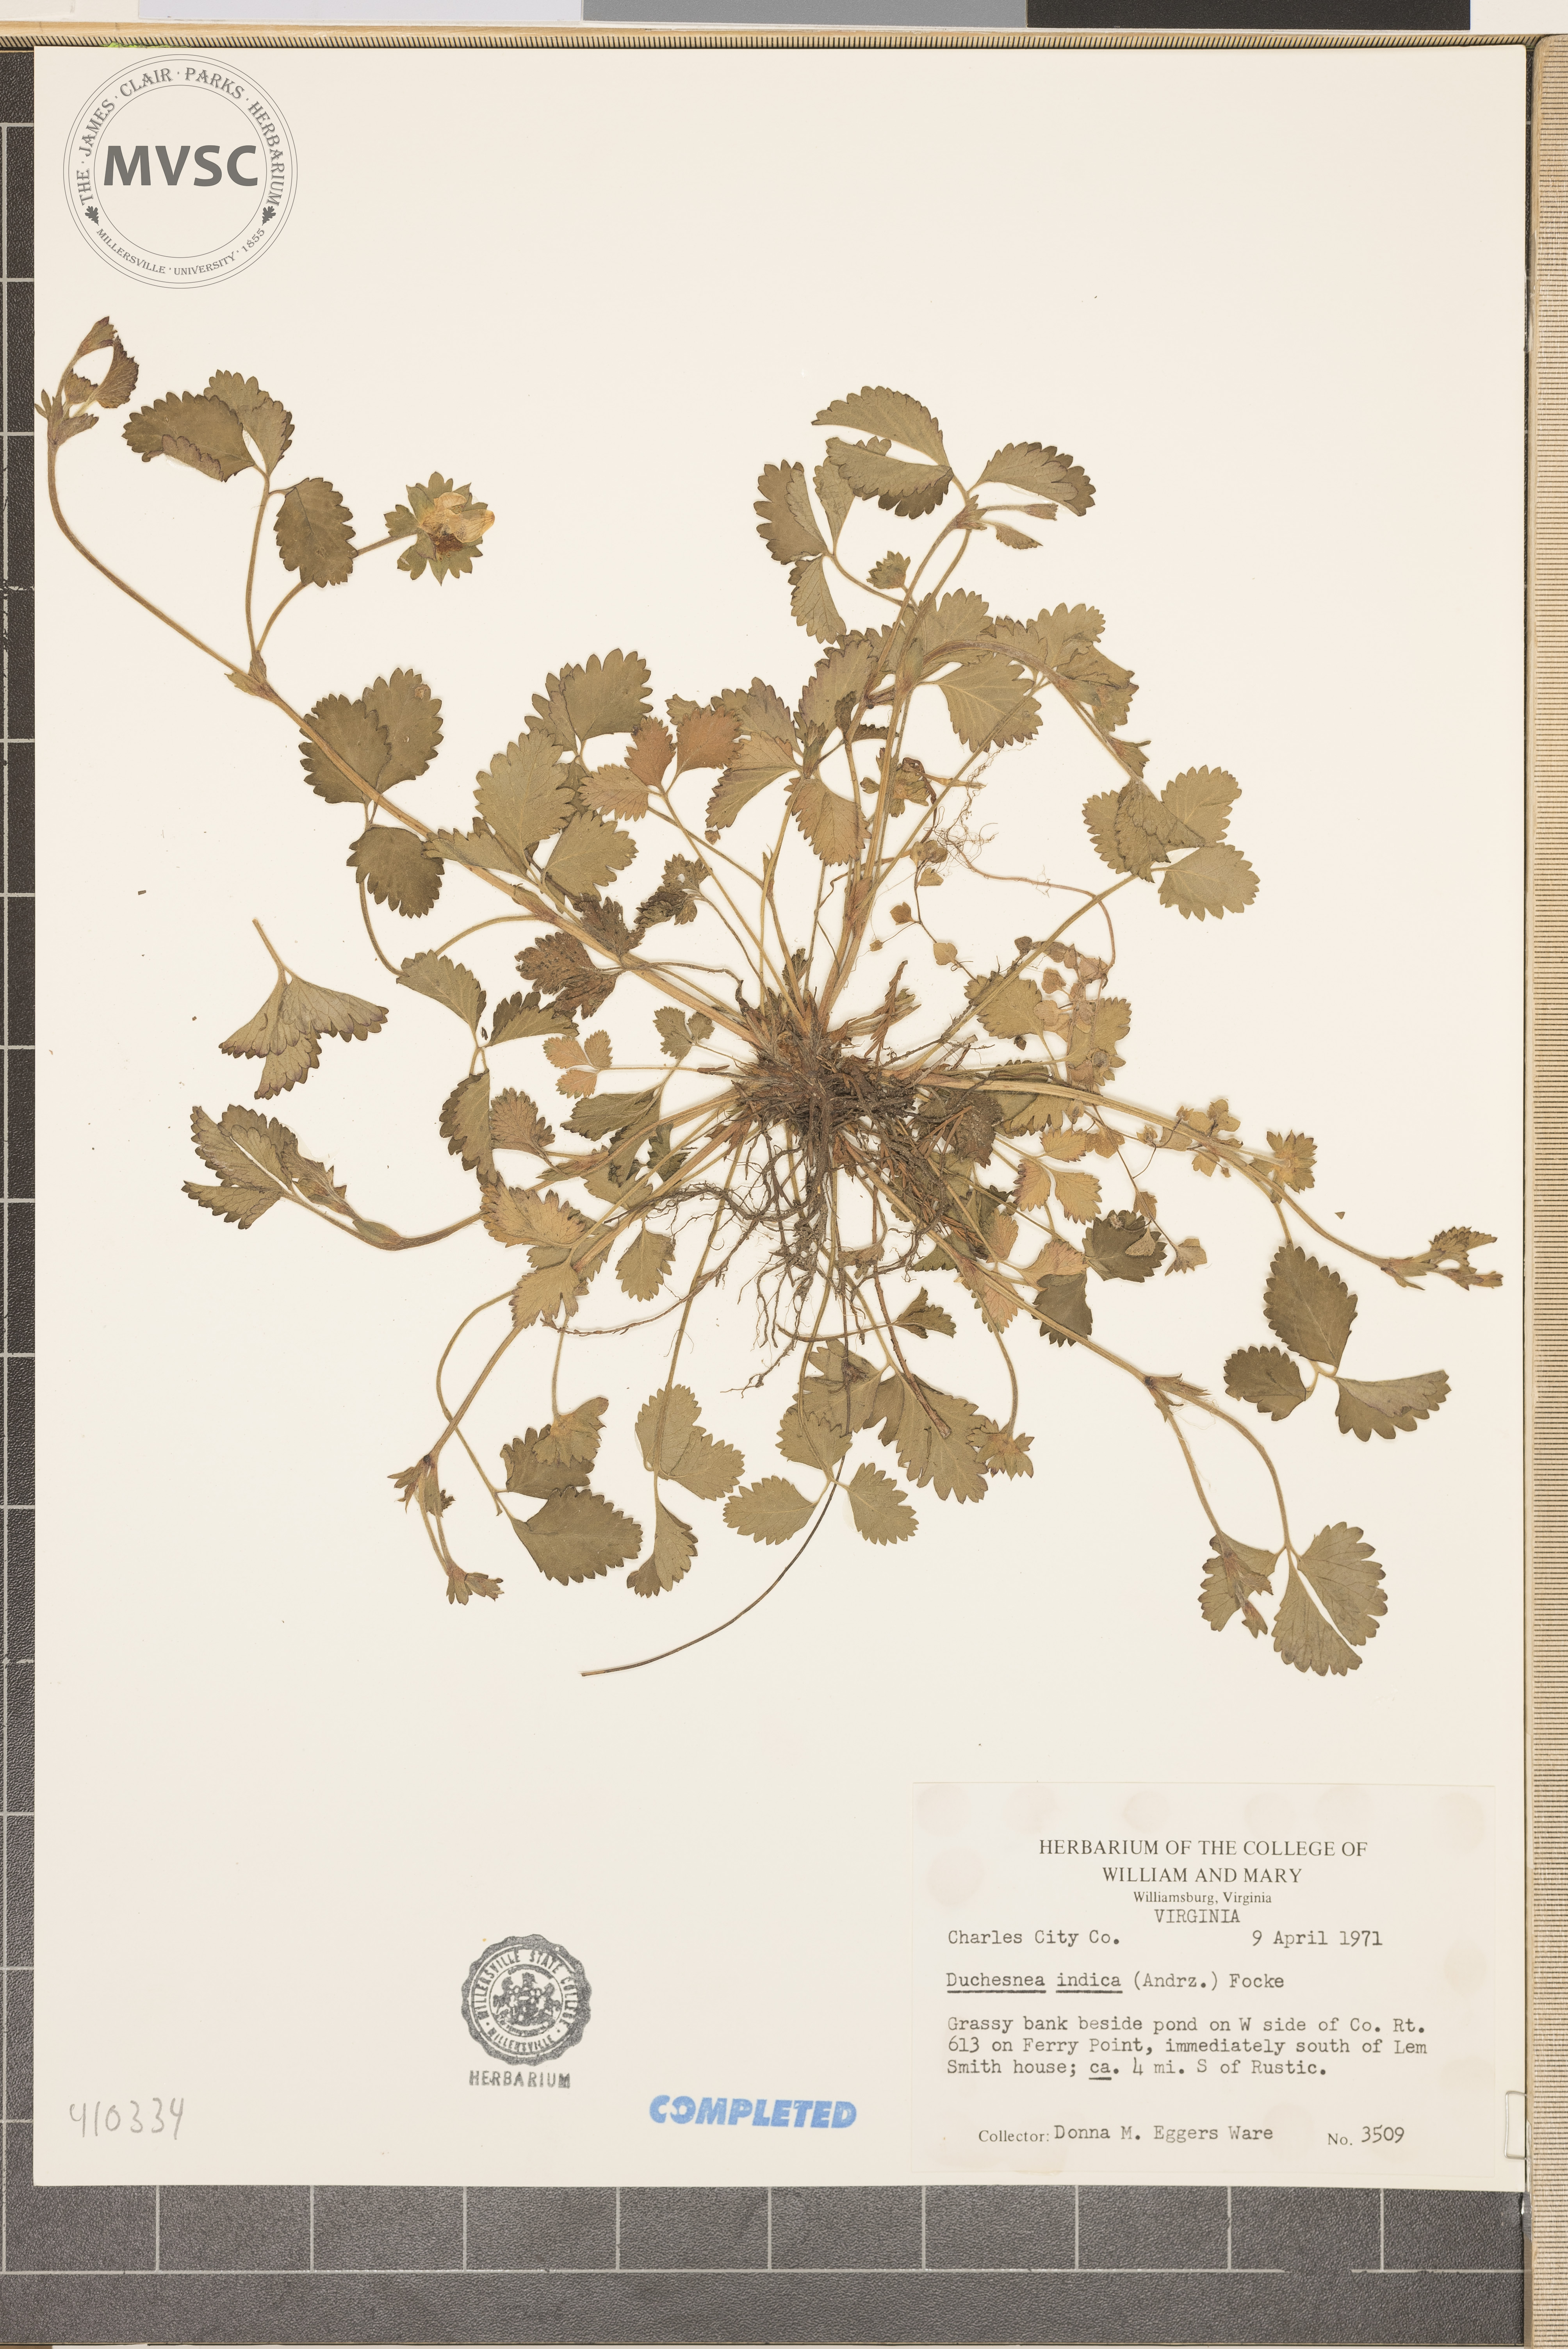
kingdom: Plantae
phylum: Tracheophyta
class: Magnoliopsida
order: Rosales
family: Rosaceae
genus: Potentilla
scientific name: Potentilla indica
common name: Yellow-flowered strawberry
